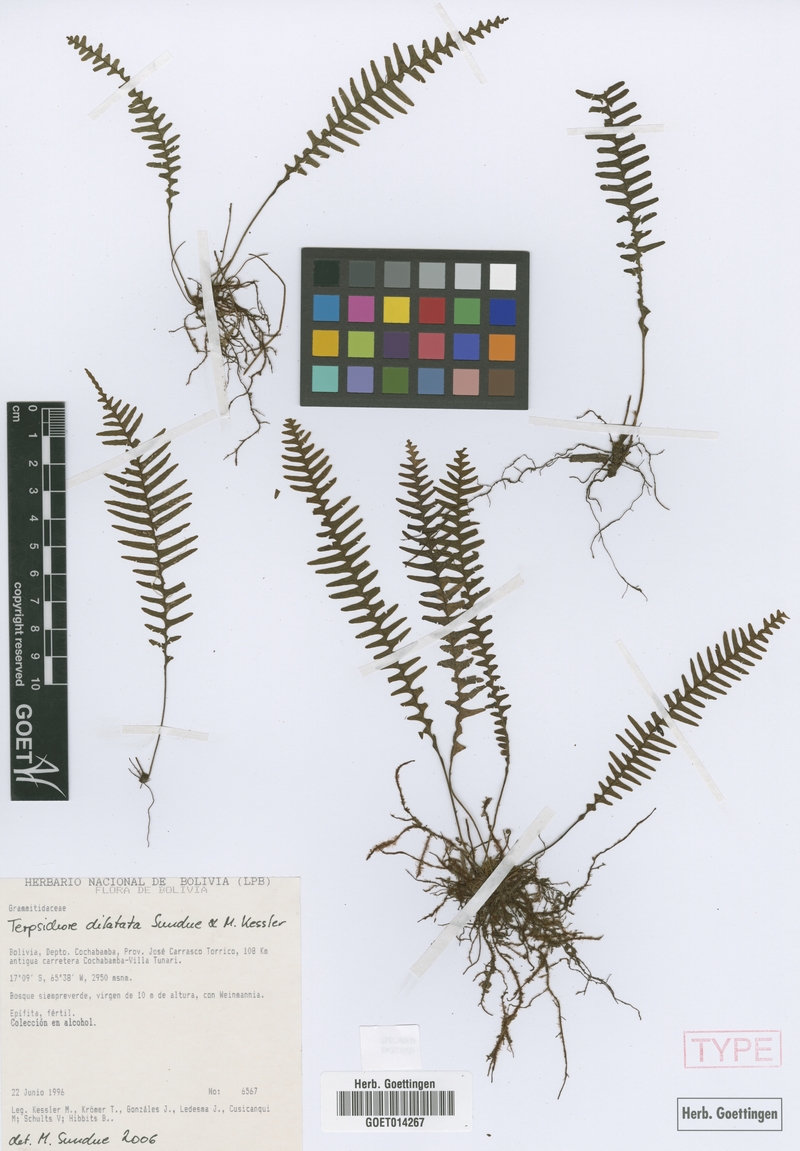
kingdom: Plantae
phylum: Tracheophyta
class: Polypodiopsida
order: Polypodiales
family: Polypodiaceae
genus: Ascogrammitis
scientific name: Ascogrammitis dilatata
